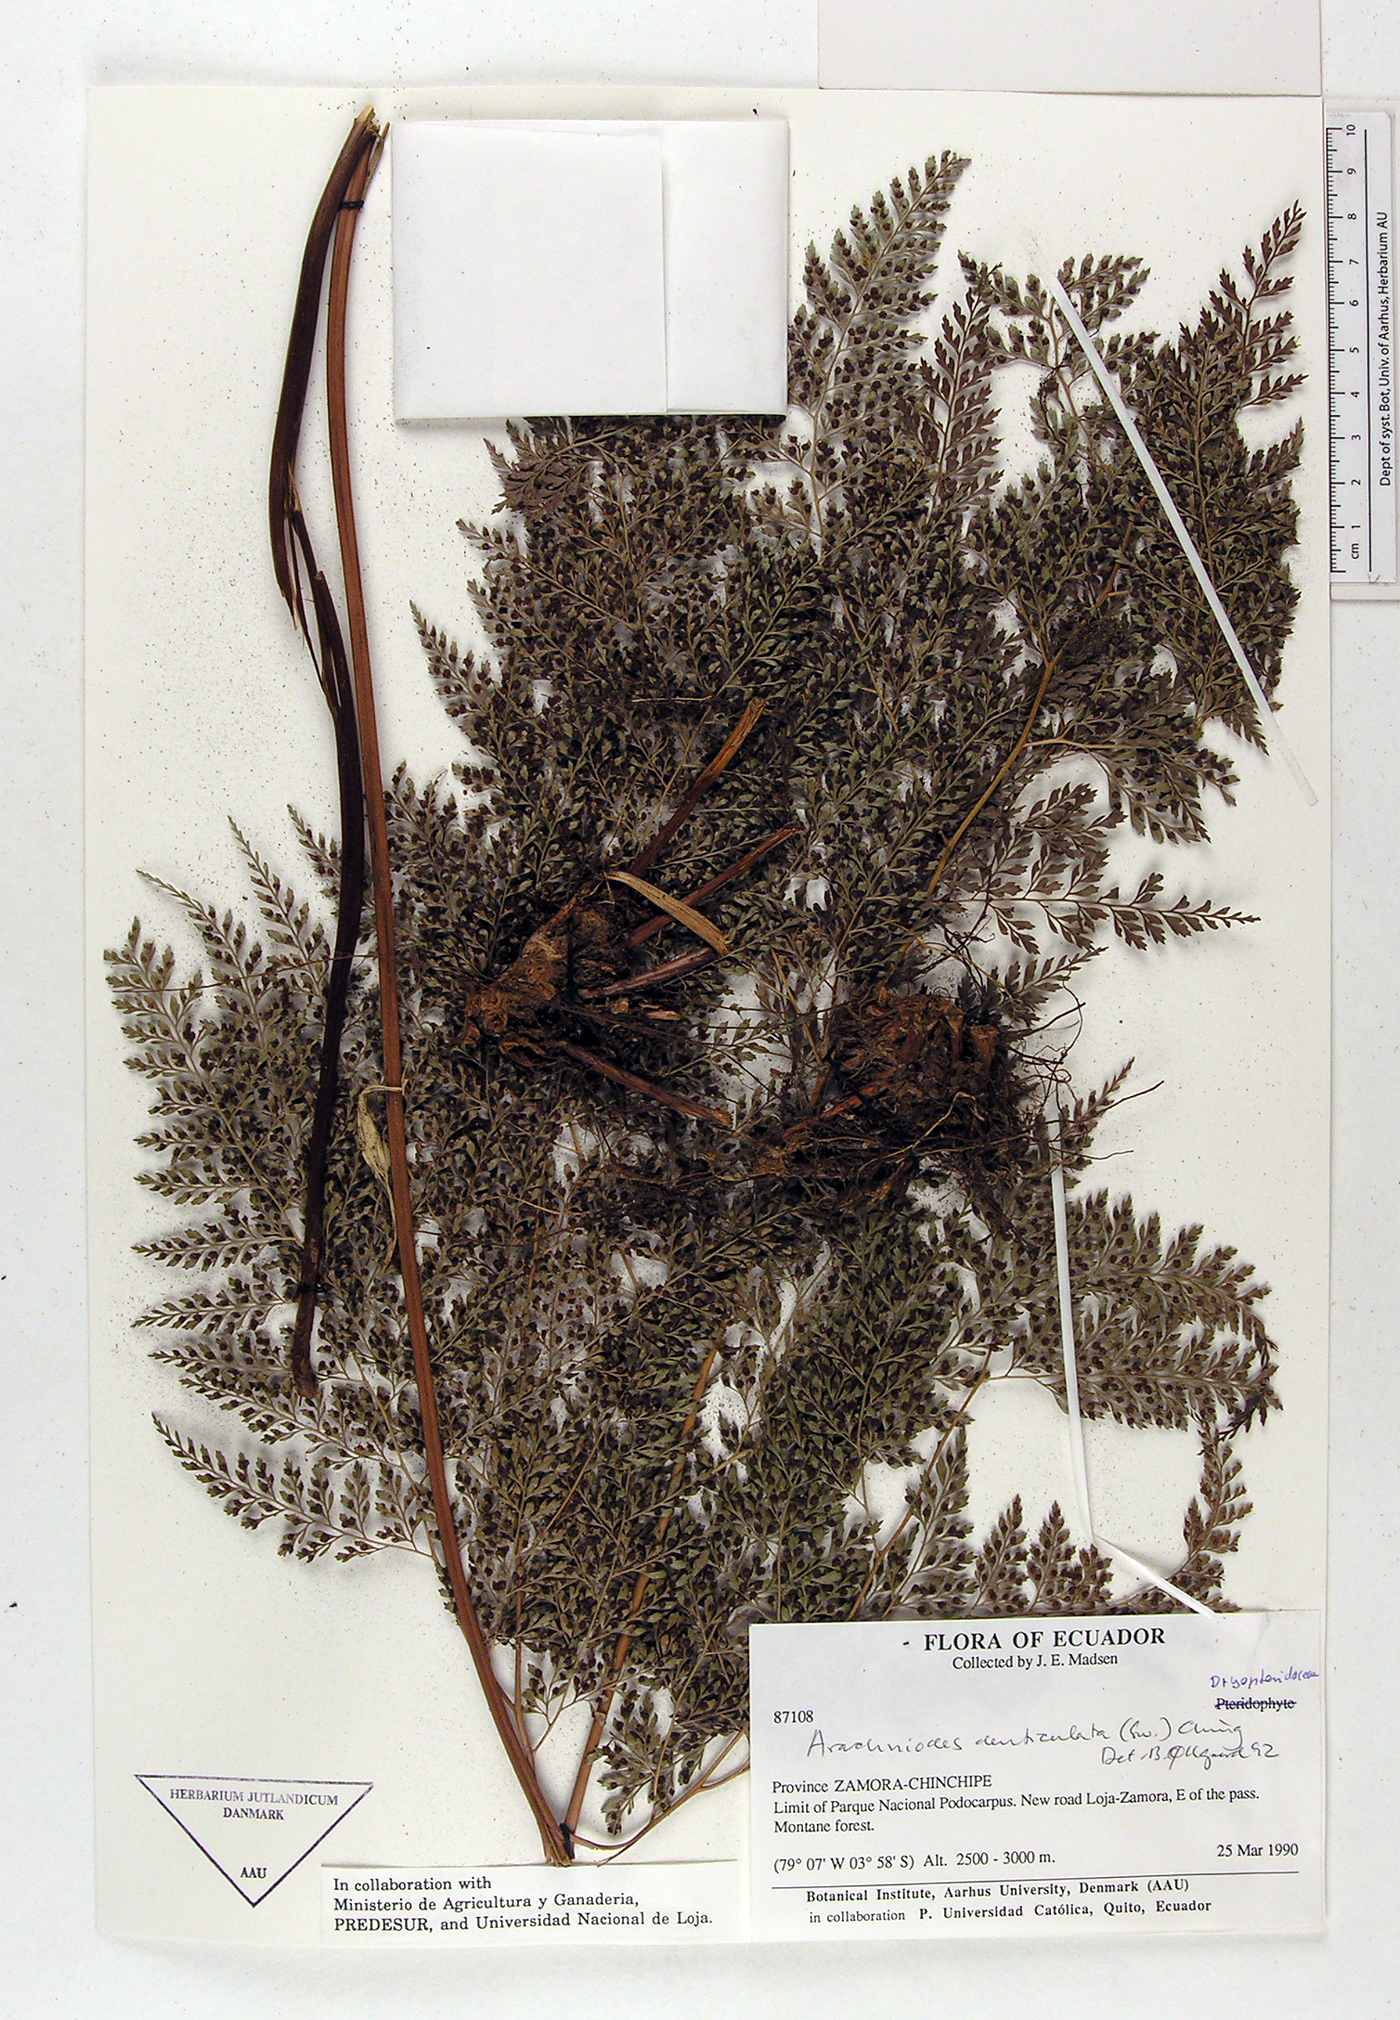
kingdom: Plantae
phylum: Tracheophyta
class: Polypodiopsida
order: Polypodiales
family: Dryopteridaceae
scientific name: Dryopteridaceae
